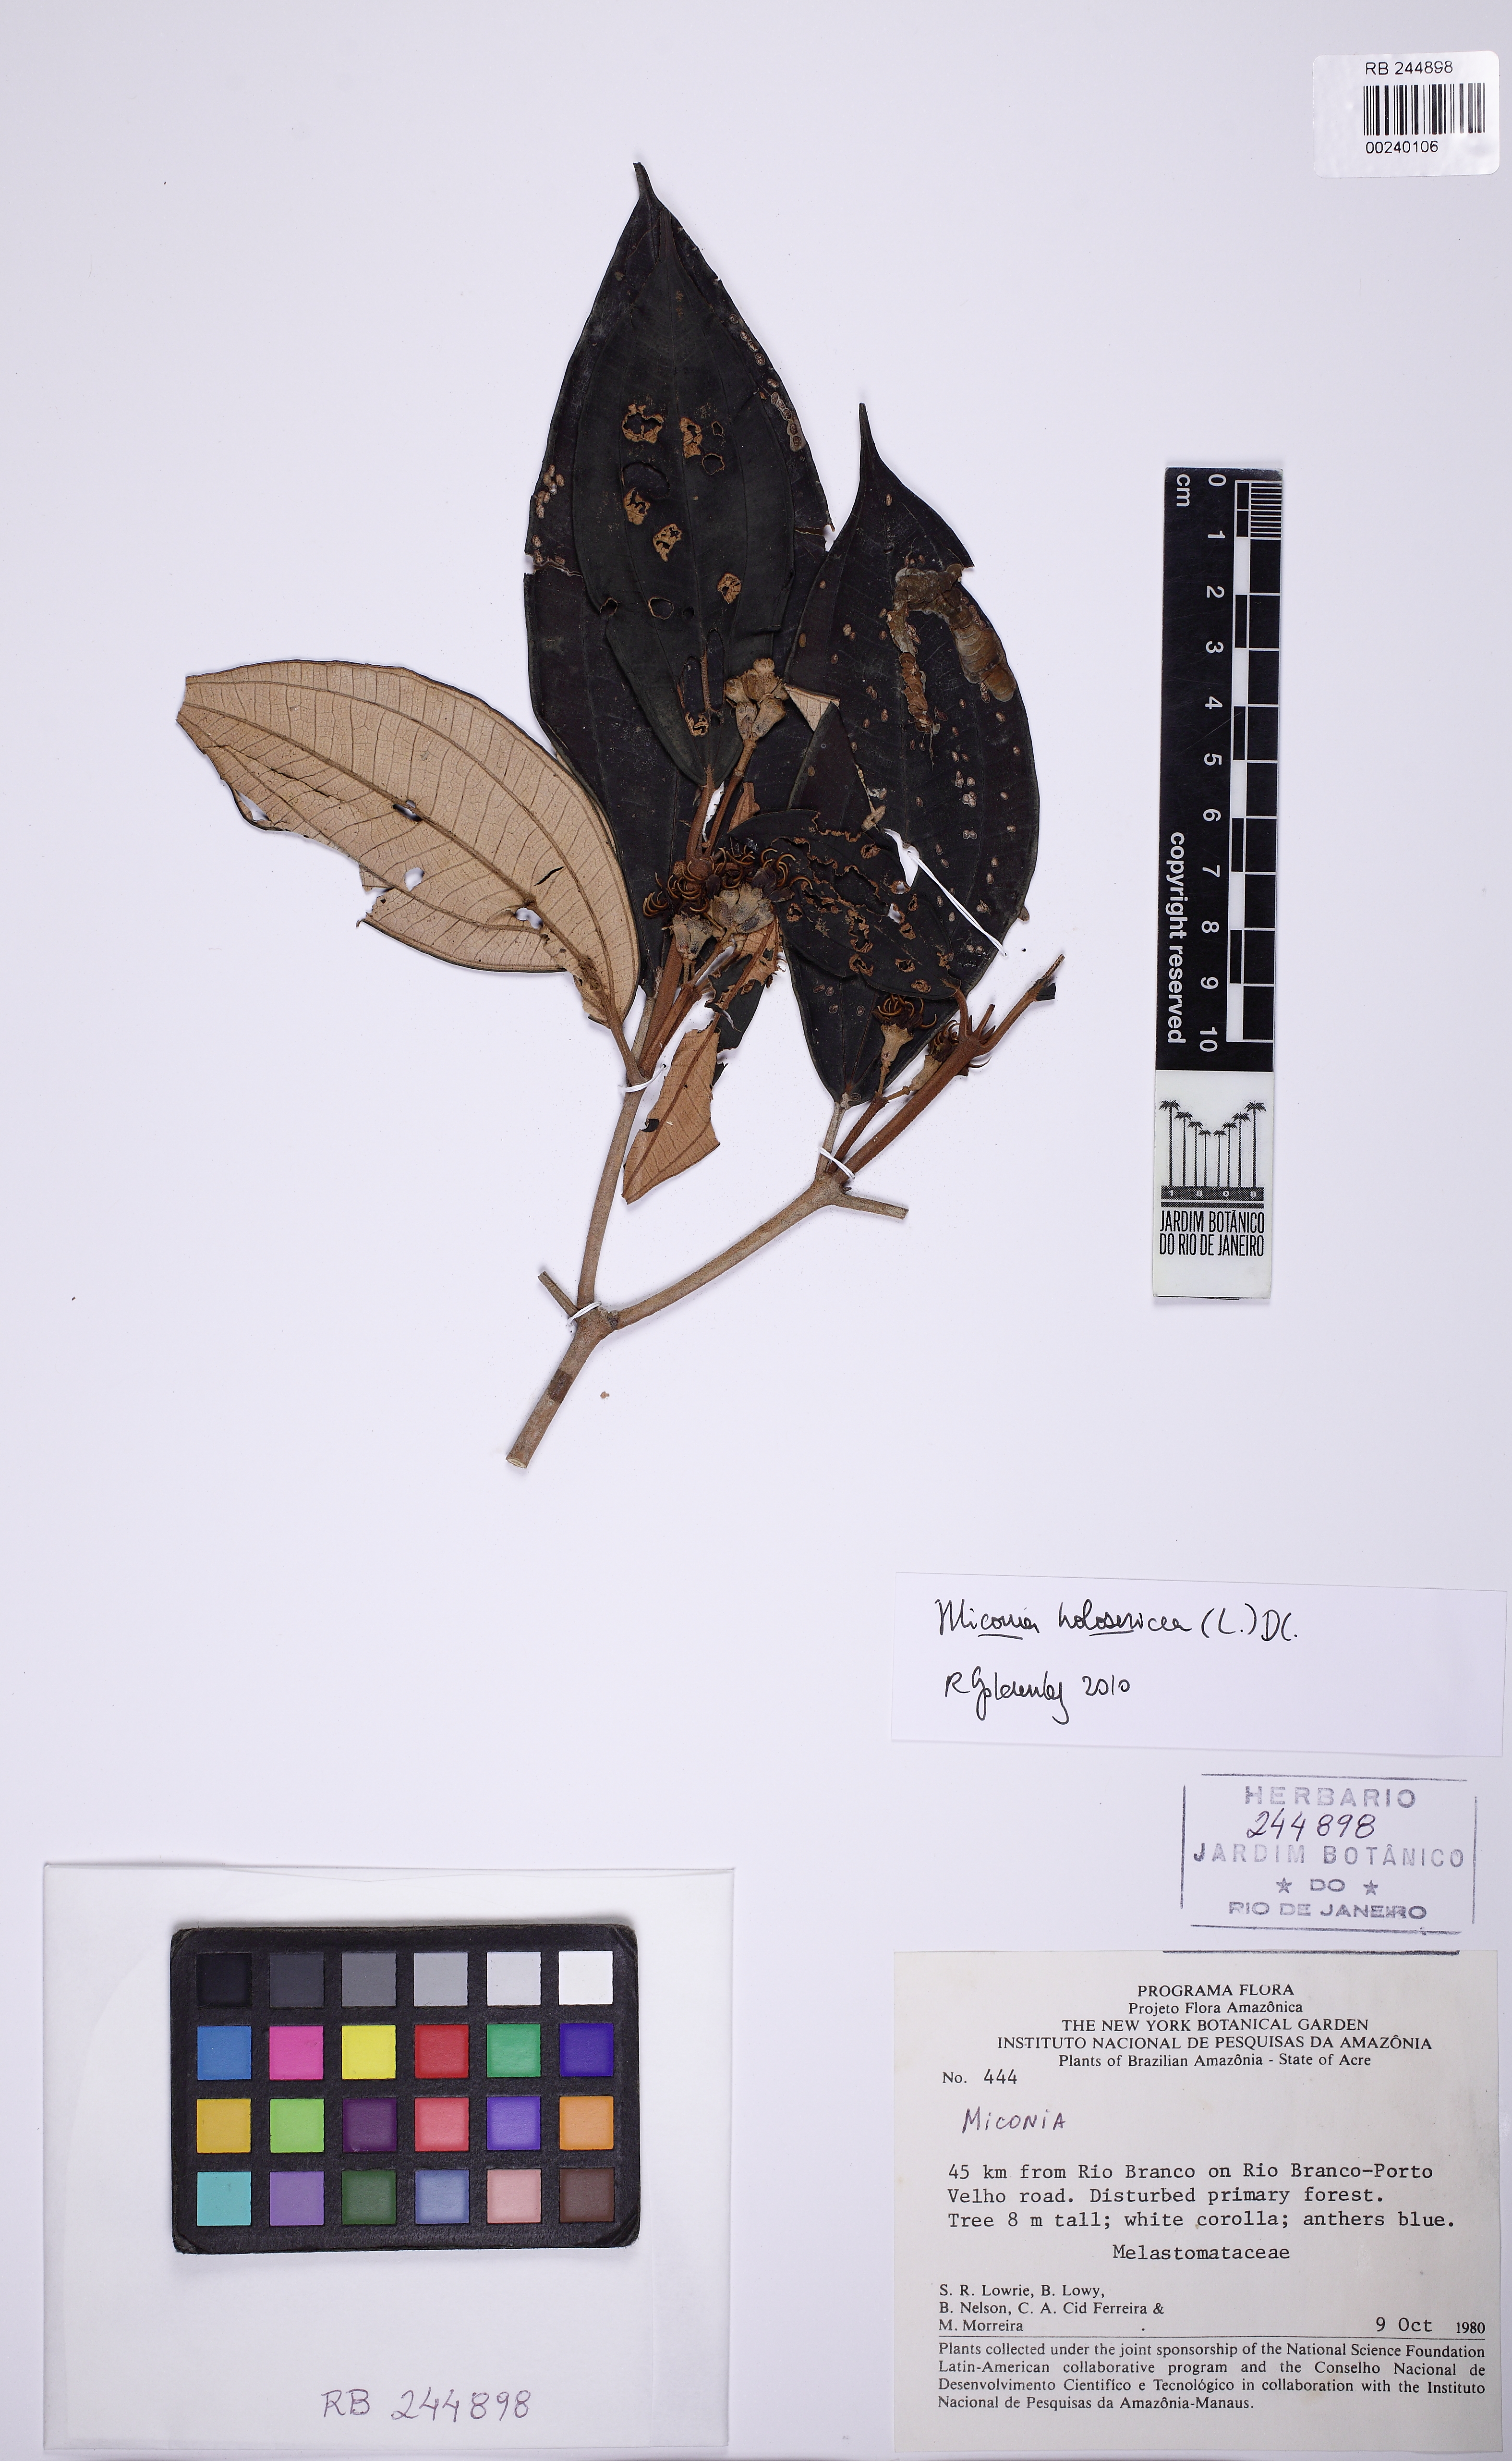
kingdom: Plantae
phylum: Tracheophyta
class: Magnoliopsida
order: Myrtales
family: Melastomataceae
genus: Miconia
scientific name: Miconia holosericea
